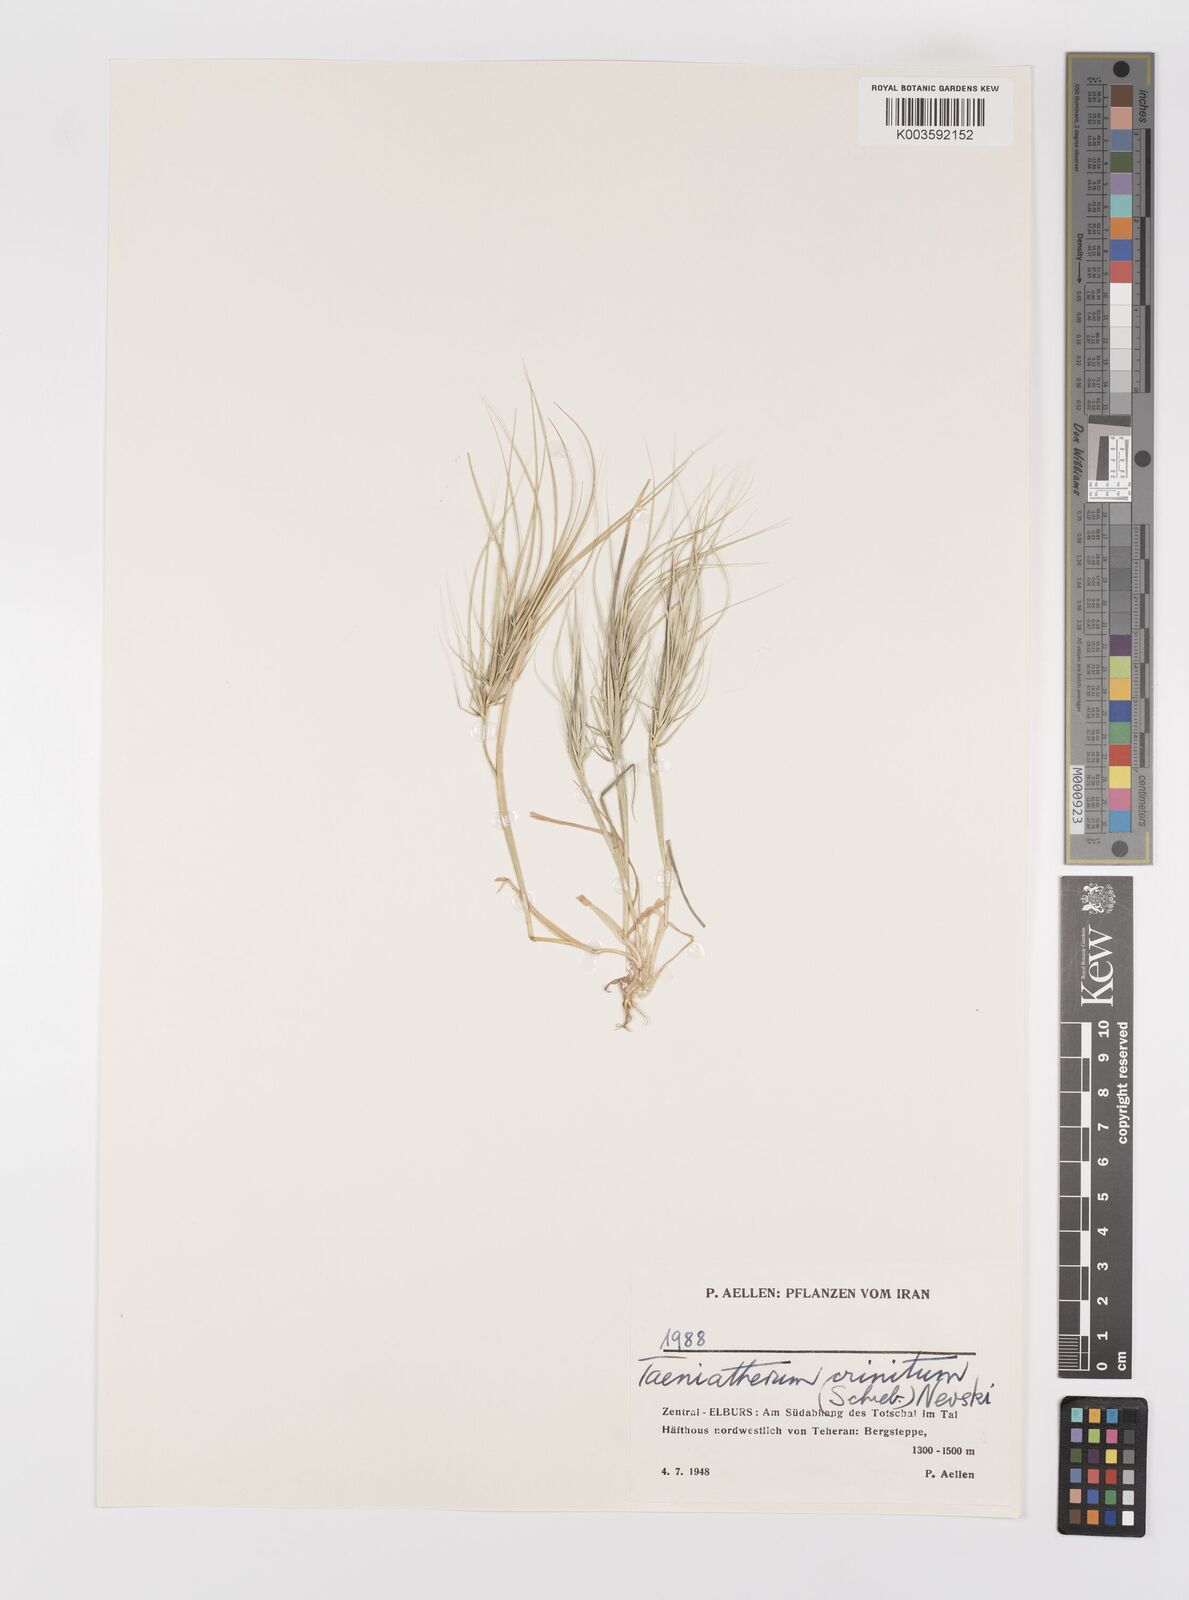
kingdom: Plantae
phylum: Tracheophyta
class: Liliopsida
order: Poales
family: Poaceae
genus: Taeniatherum
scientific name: Taeniatherum caput-medusae
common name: Medusahead
